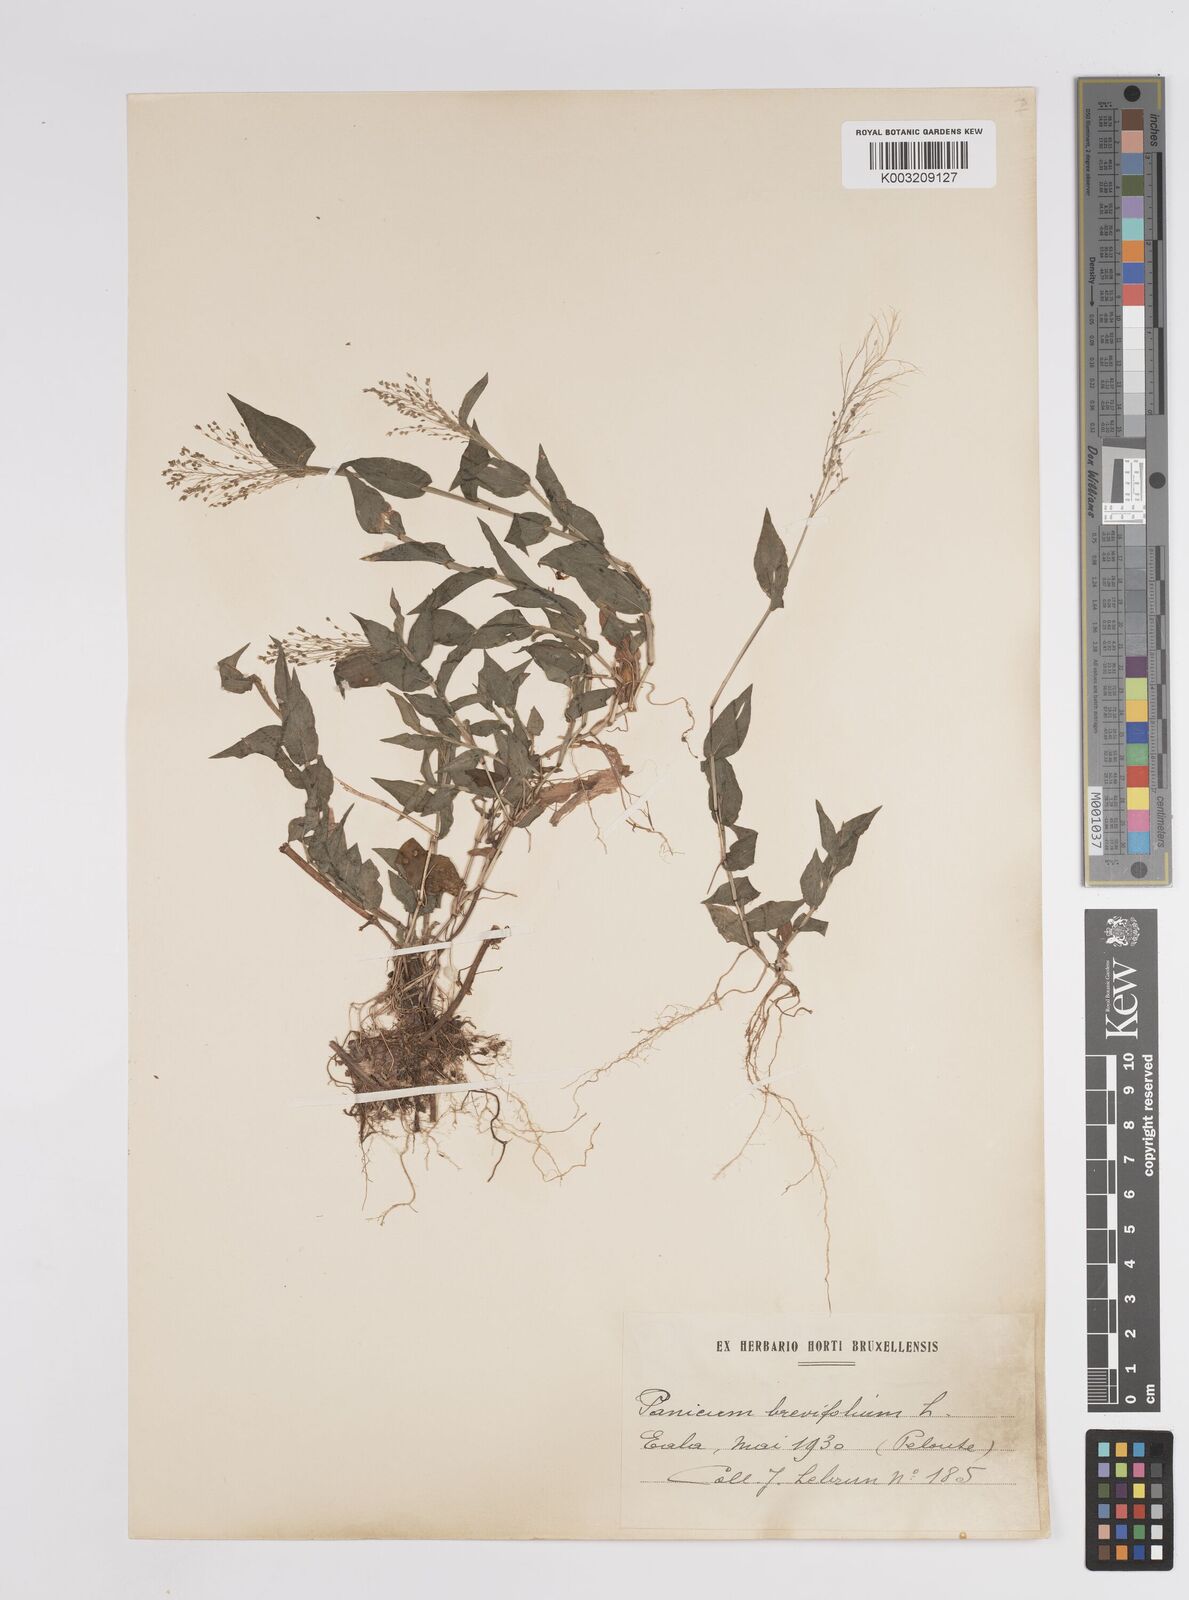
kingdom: Plantae
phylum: Tracheophyta
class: Liliopsida
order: Poales
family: Poaceae
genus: Panicum
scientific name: Panicum brevifolium
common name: Shortleaf panic grass
